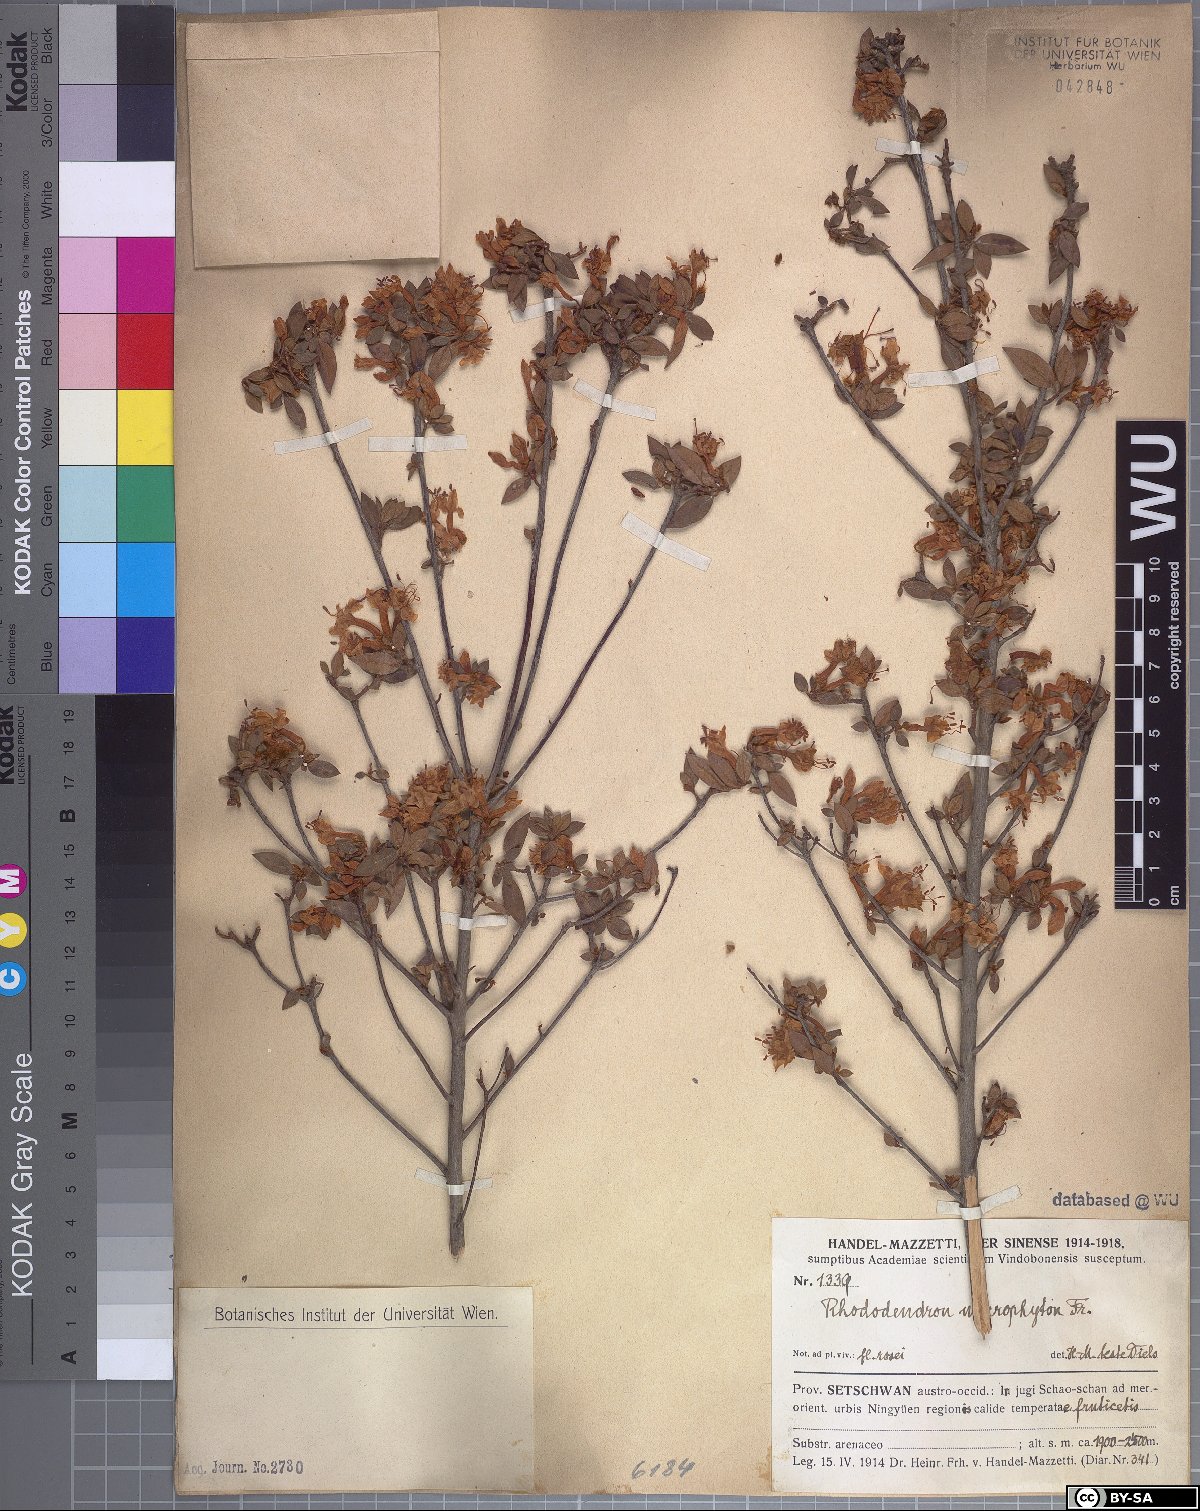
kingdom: Plantae
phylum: Tracheophyta
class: Magnoliopsida
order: Ericales
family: Ericaceae
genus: Rhododendron
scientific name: Rhododendron microphyton
